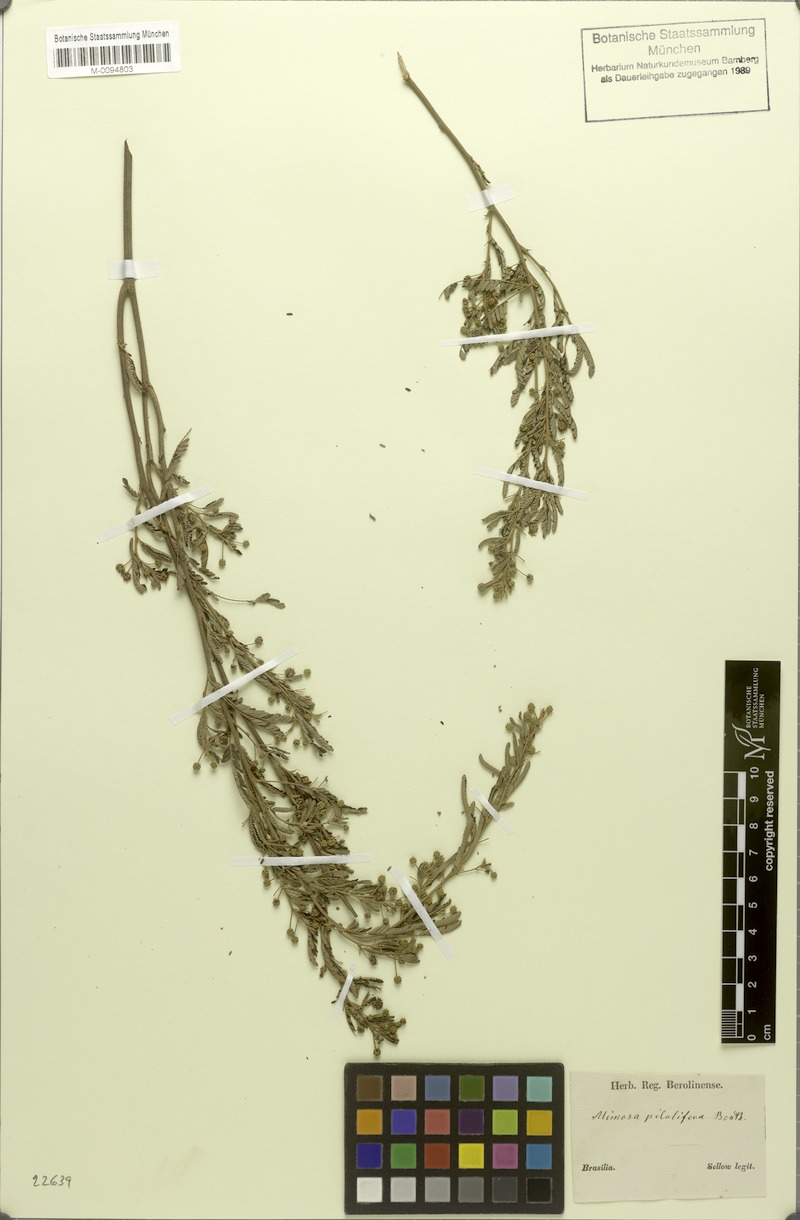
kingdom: Plantae
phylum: Tracheophyta
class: Magnoliopsida
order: Fabales
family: Fabaceae
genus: Mimosa
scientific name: Mimosa pilulifera
